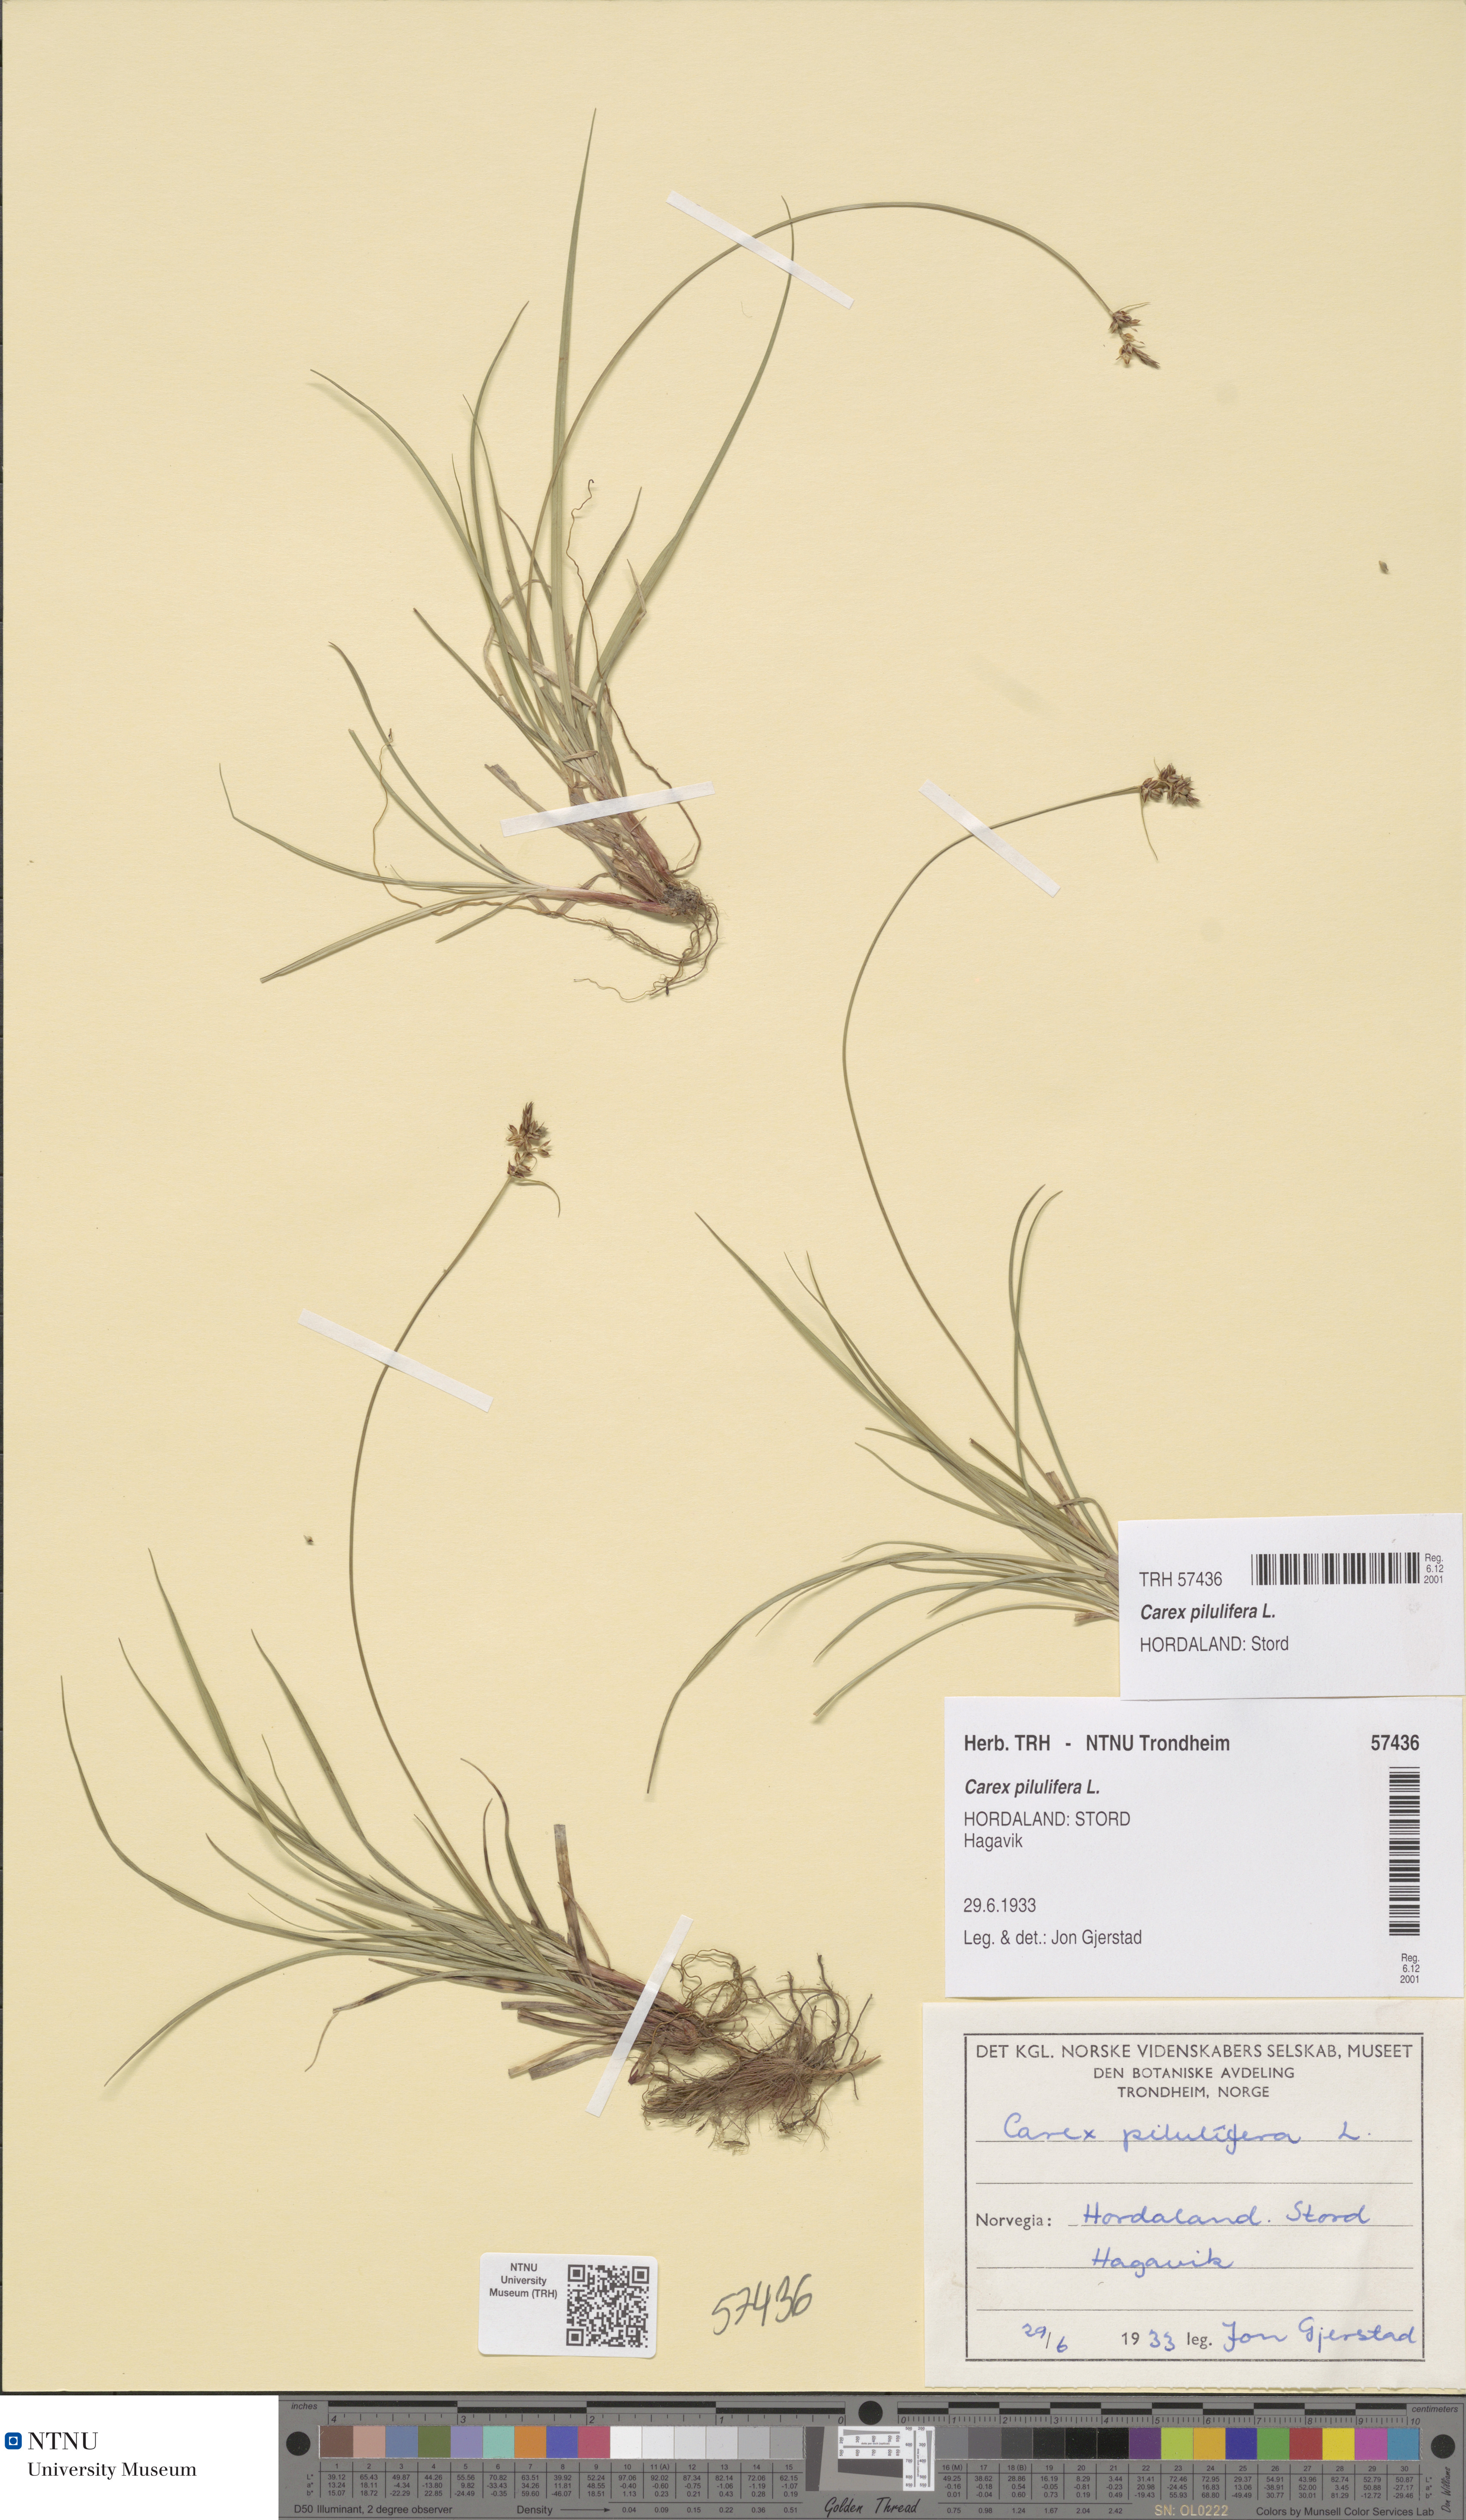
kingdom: Plantae
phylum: Tracheophyta
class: Liliopsida
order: Poales
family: Cyperaceae
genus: Carex
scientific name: Carex pilulifera
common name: Pill sedge
